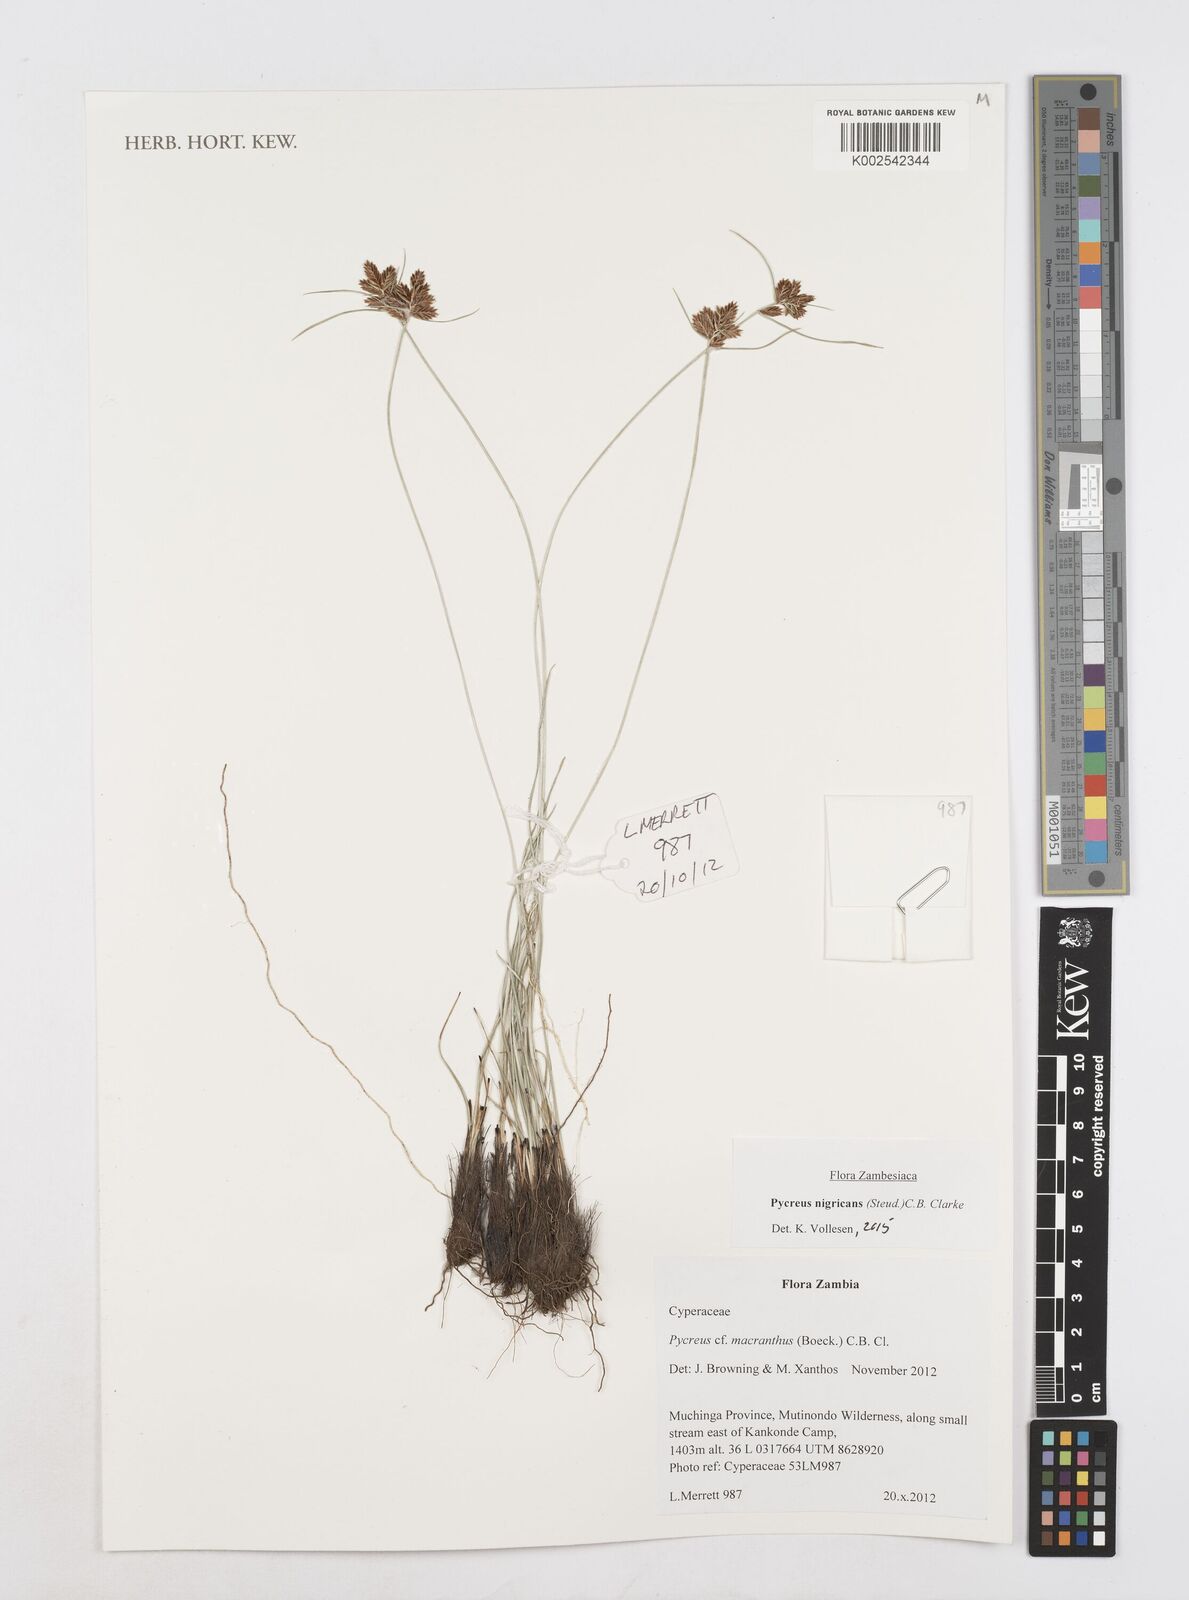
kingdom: Plantae
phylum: Tracheophyta
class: Liliopsida
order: Poales
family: Cyperaceae
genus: Cyperus
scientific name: Cyperus nigricans
